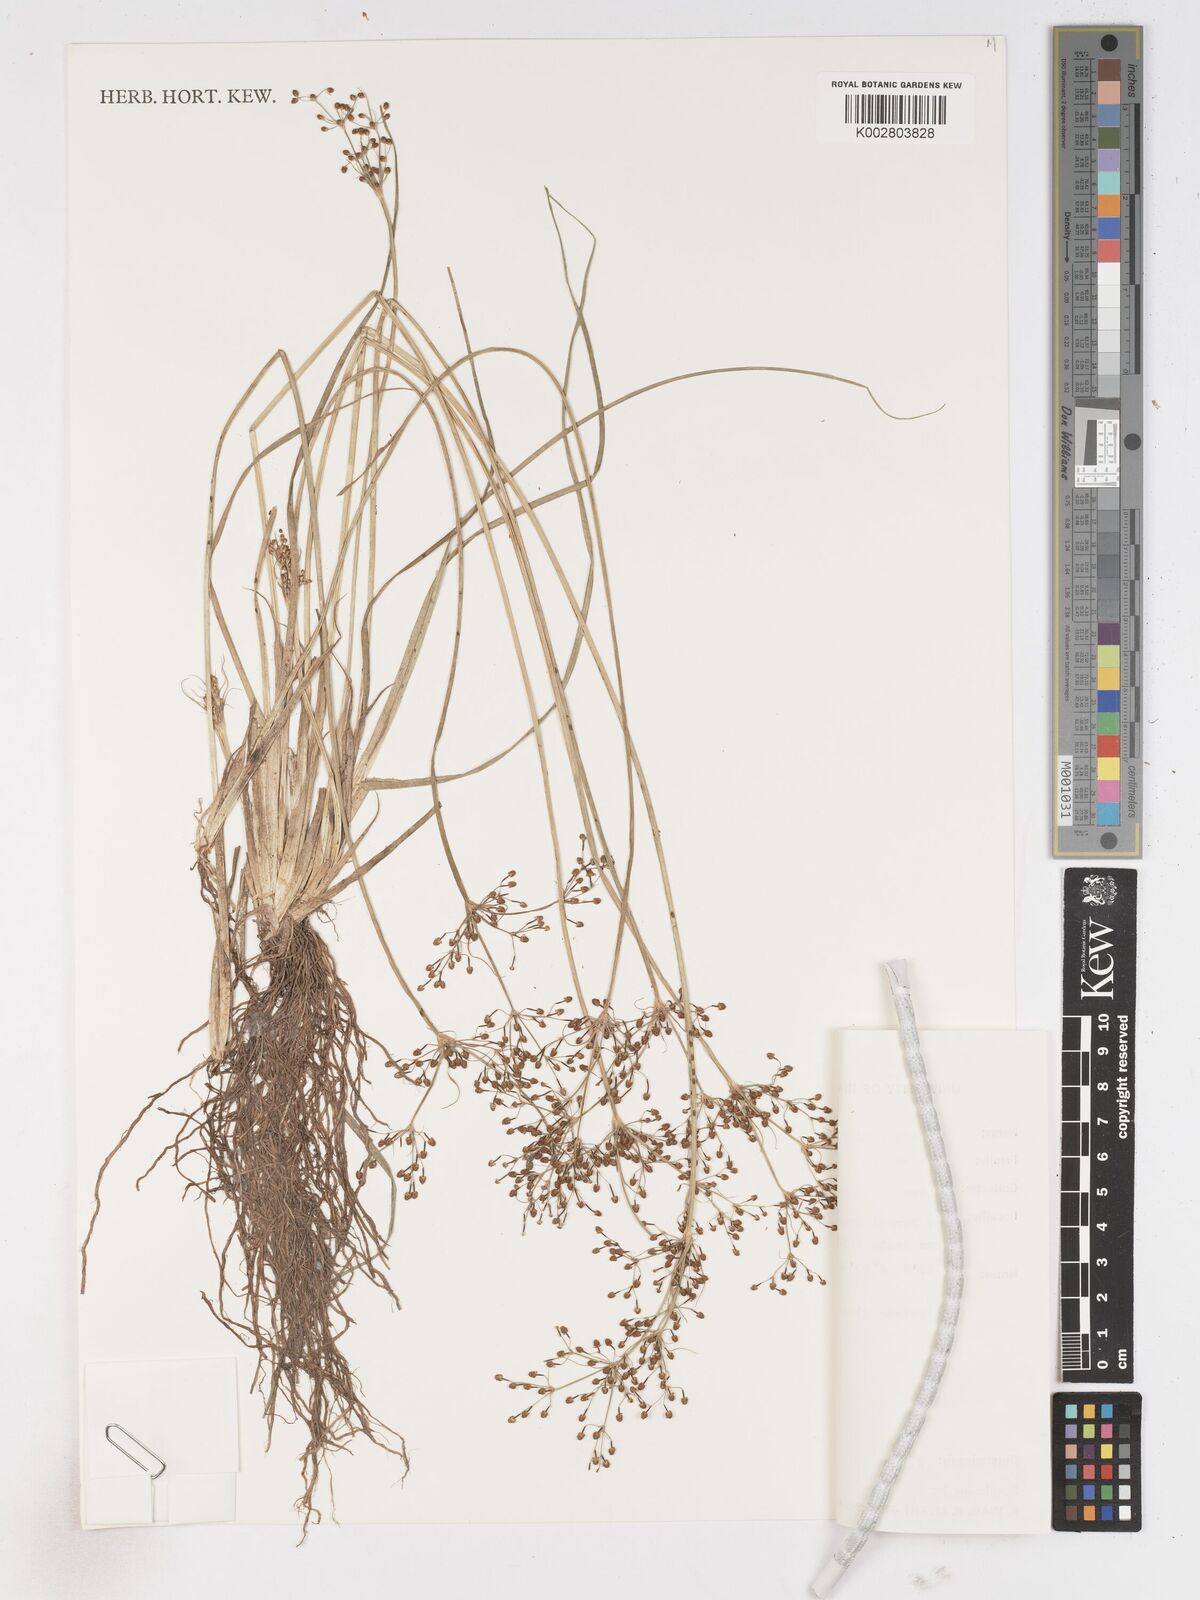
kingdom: Plantae
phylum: Tracheophyta
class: Liliopsida
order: Poales
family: Cyperaceae
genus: Fimbristylis
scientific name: Fimbristylis littoralis
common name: Fimbry
